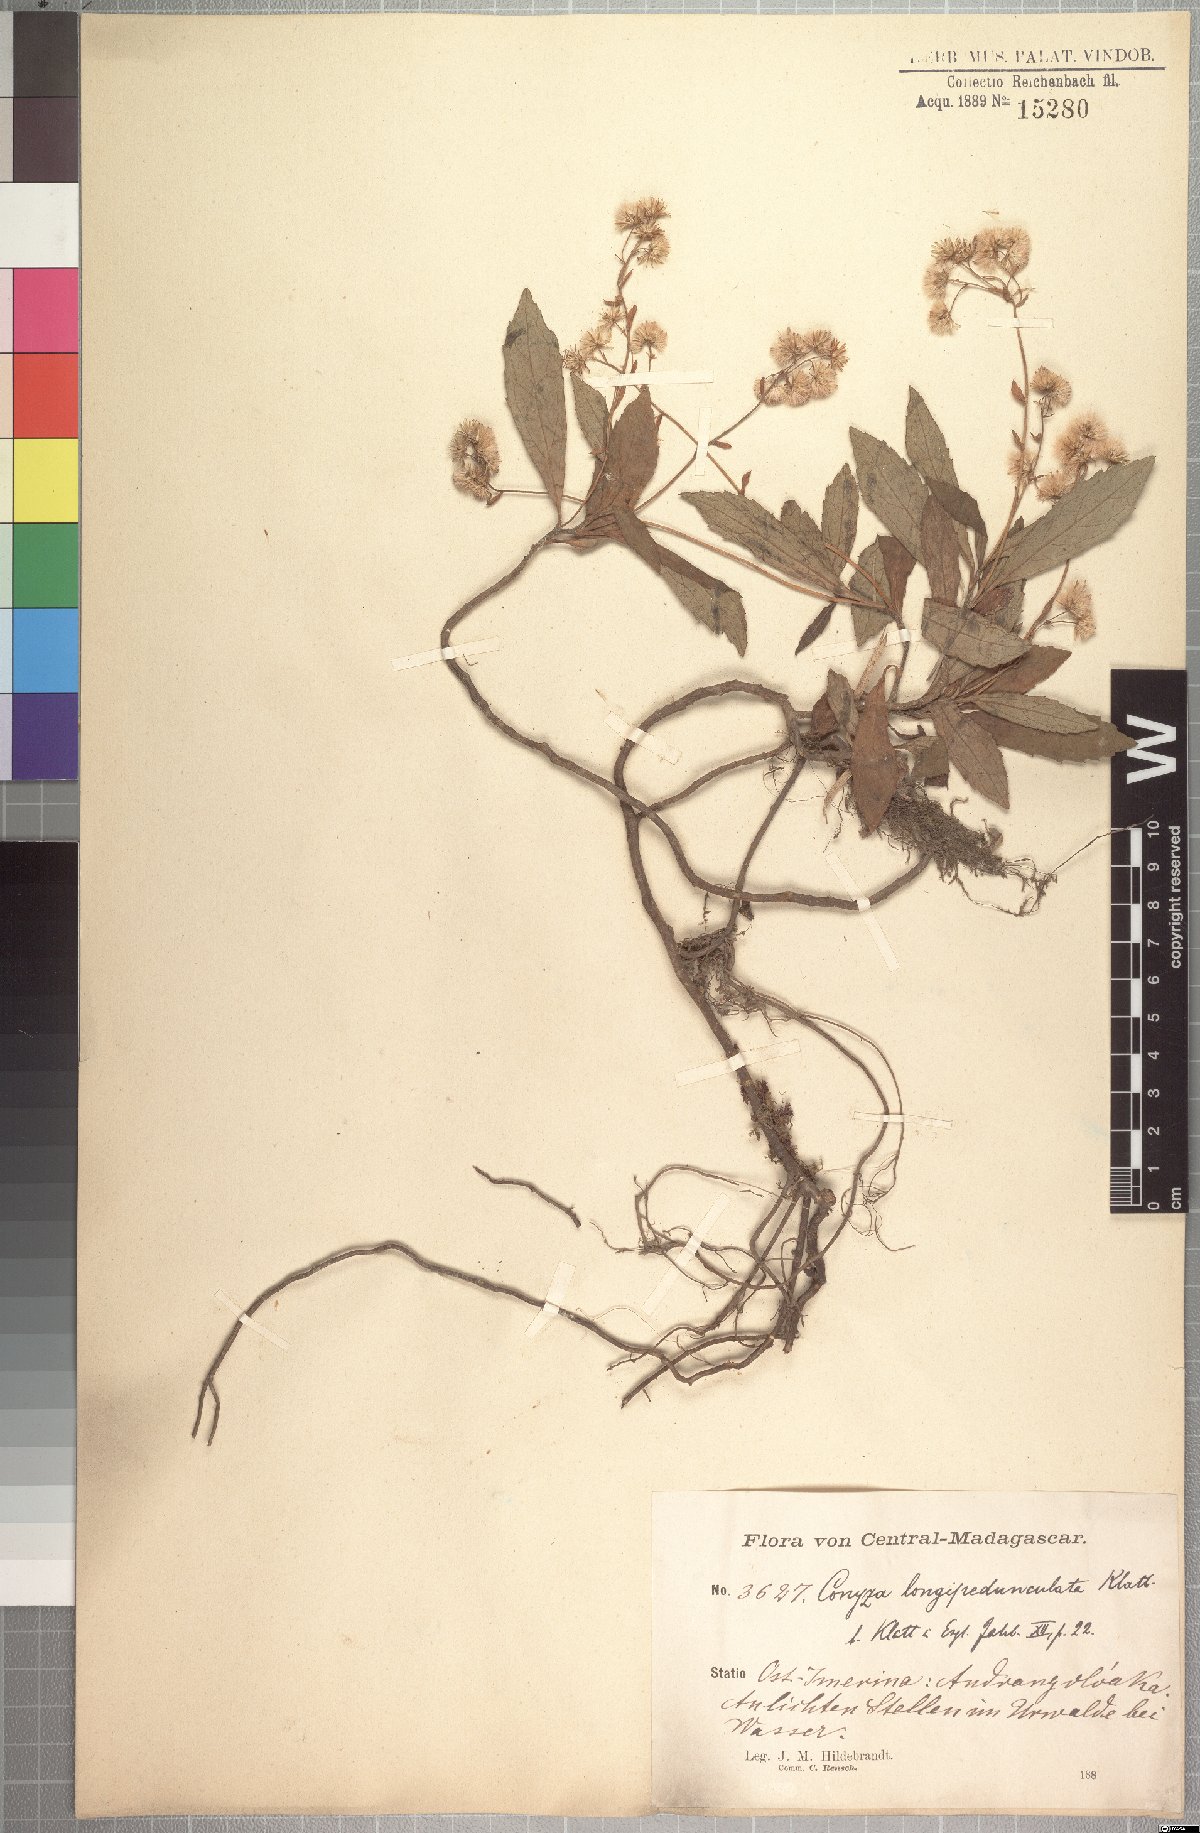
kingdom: Plantae
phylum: Tracheophyta
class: Magnoliopsida
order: Asterales
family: Asteraceae
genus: Conyza
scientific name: Conyza longipedunculata
